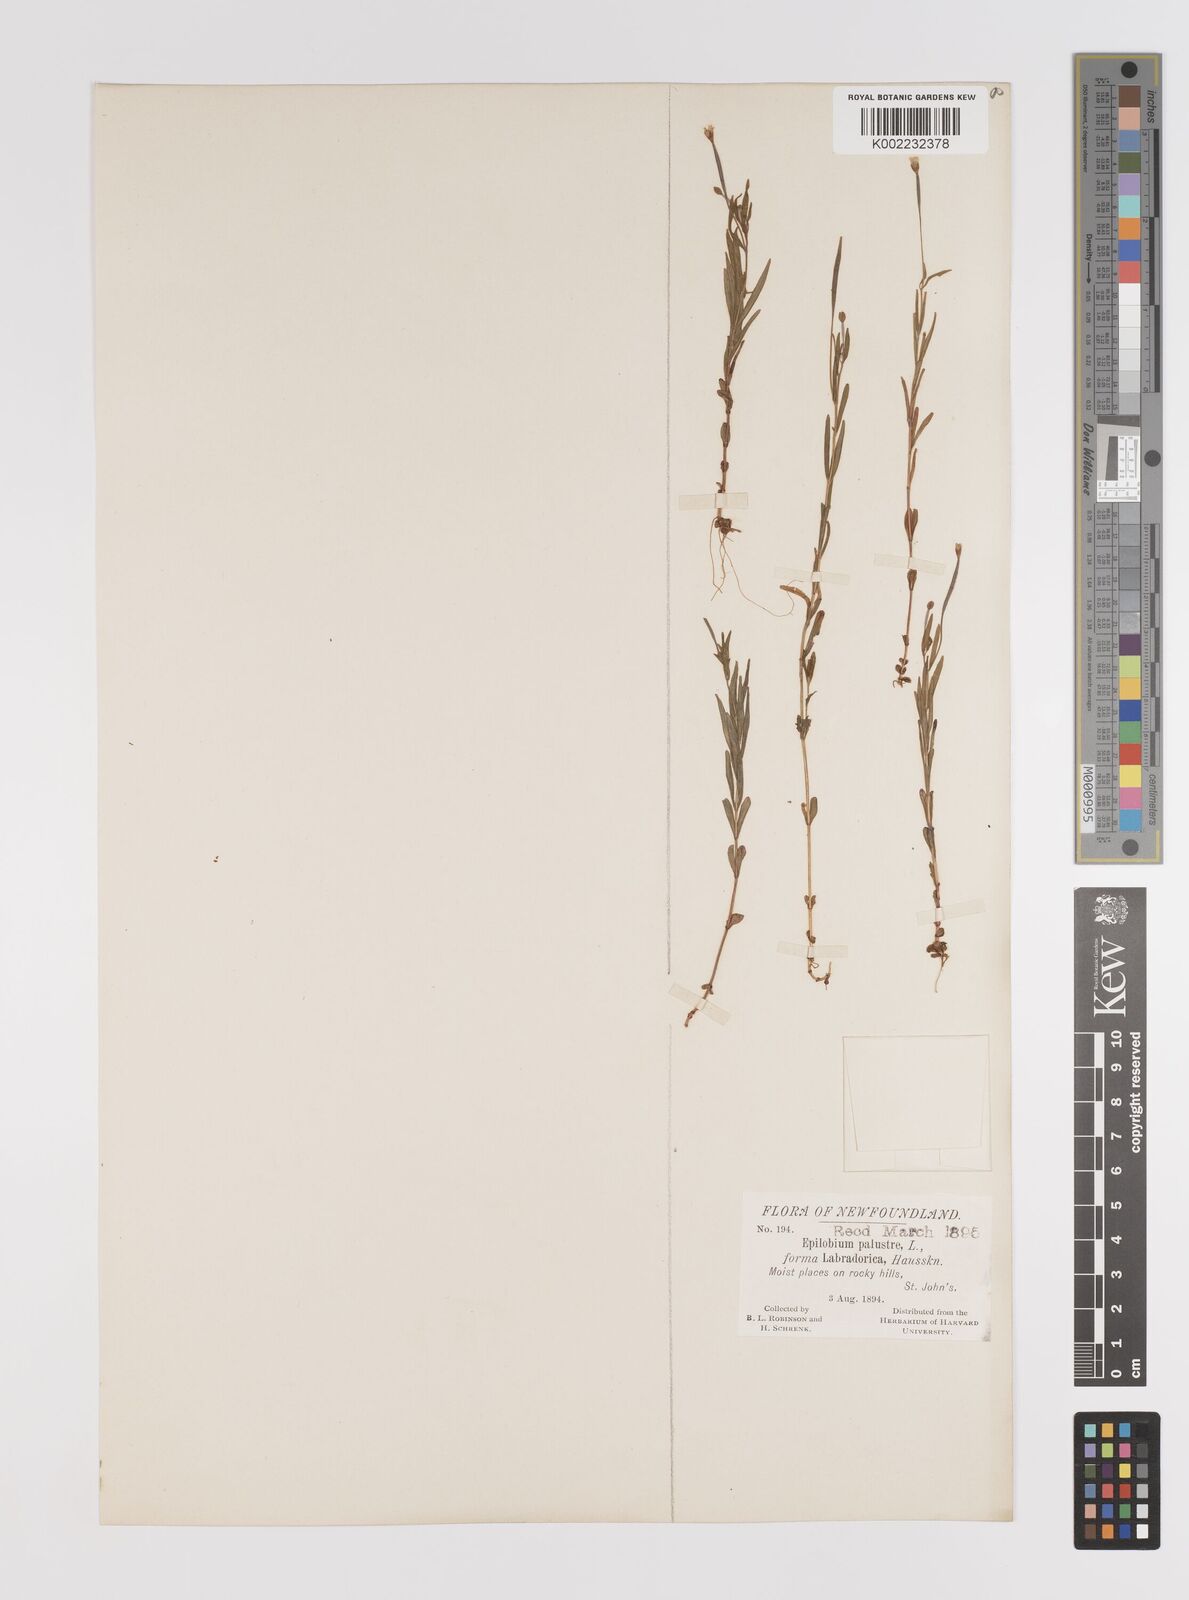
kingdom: Plantae
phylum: Tracheophyta
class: Magnoliopsida
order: Myrtales
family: Onagraceae
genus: Epilobium
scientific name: Epilobium palustre
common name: Marsh willowherb
